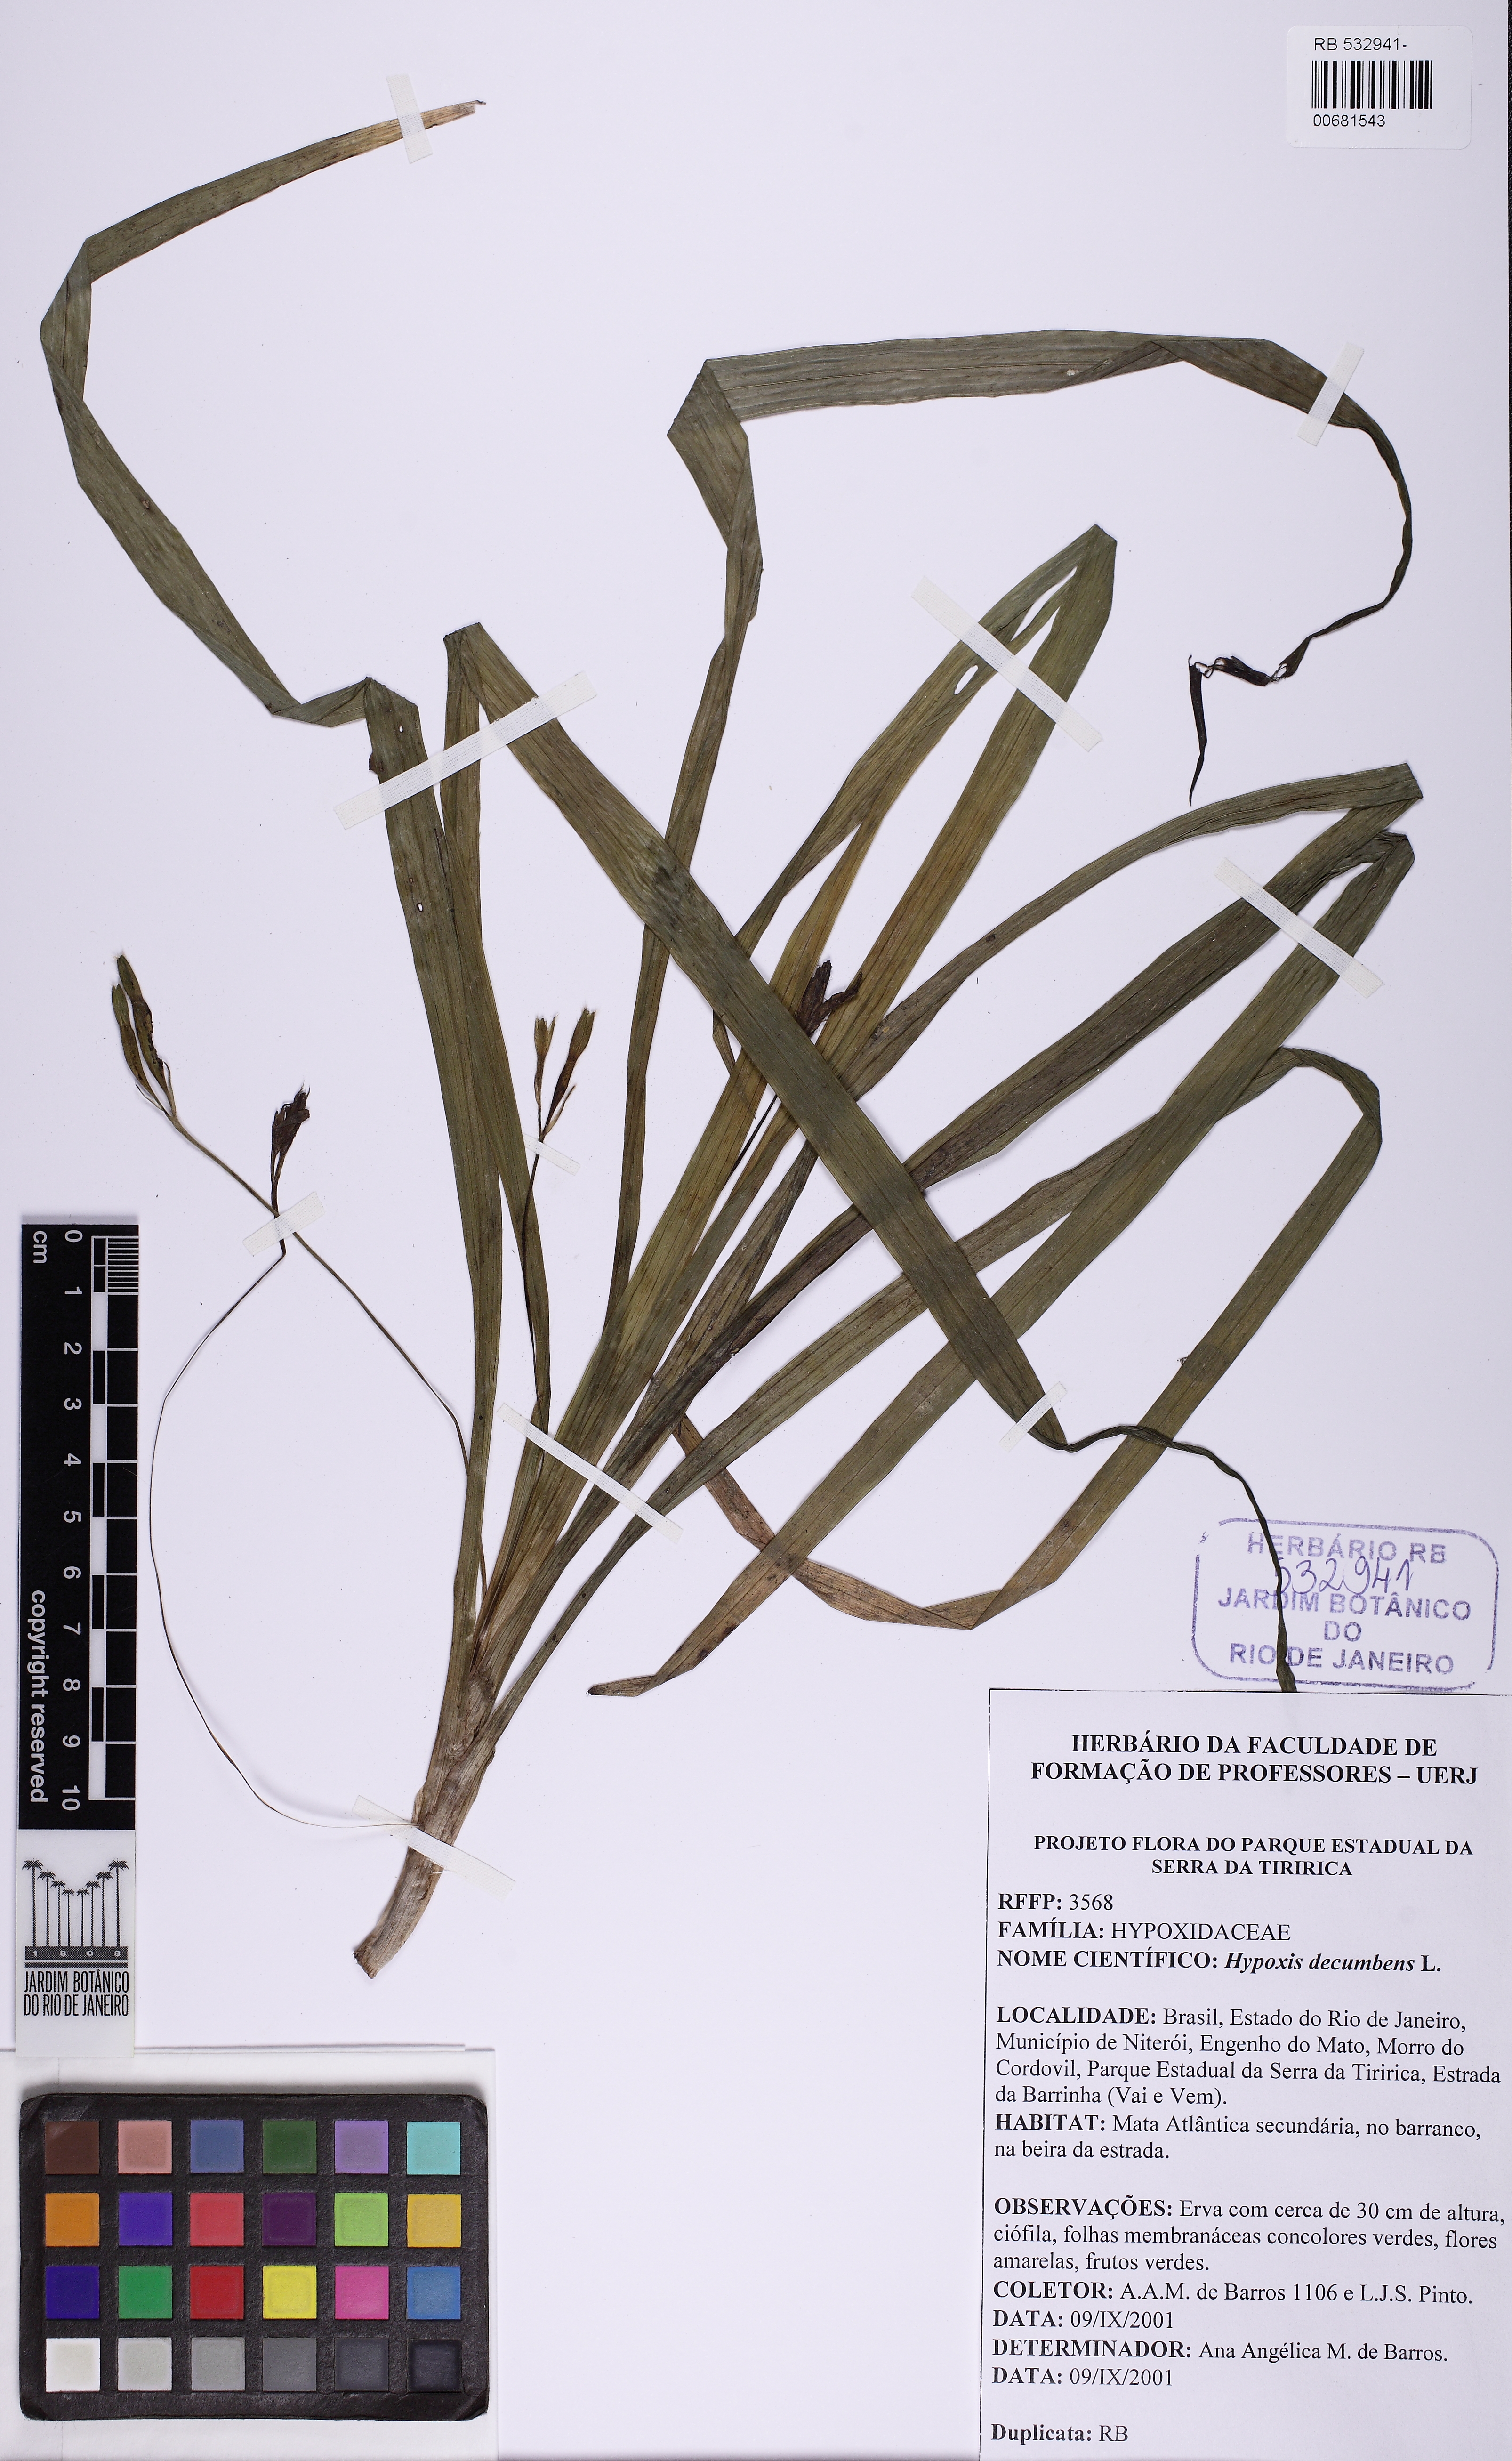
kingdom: Plantae
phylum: Tracheophyta
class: Liliopsida
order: Asparagales
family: Hypoxidaceae
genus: Hypoxis
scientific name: Hypoxis decumbens
